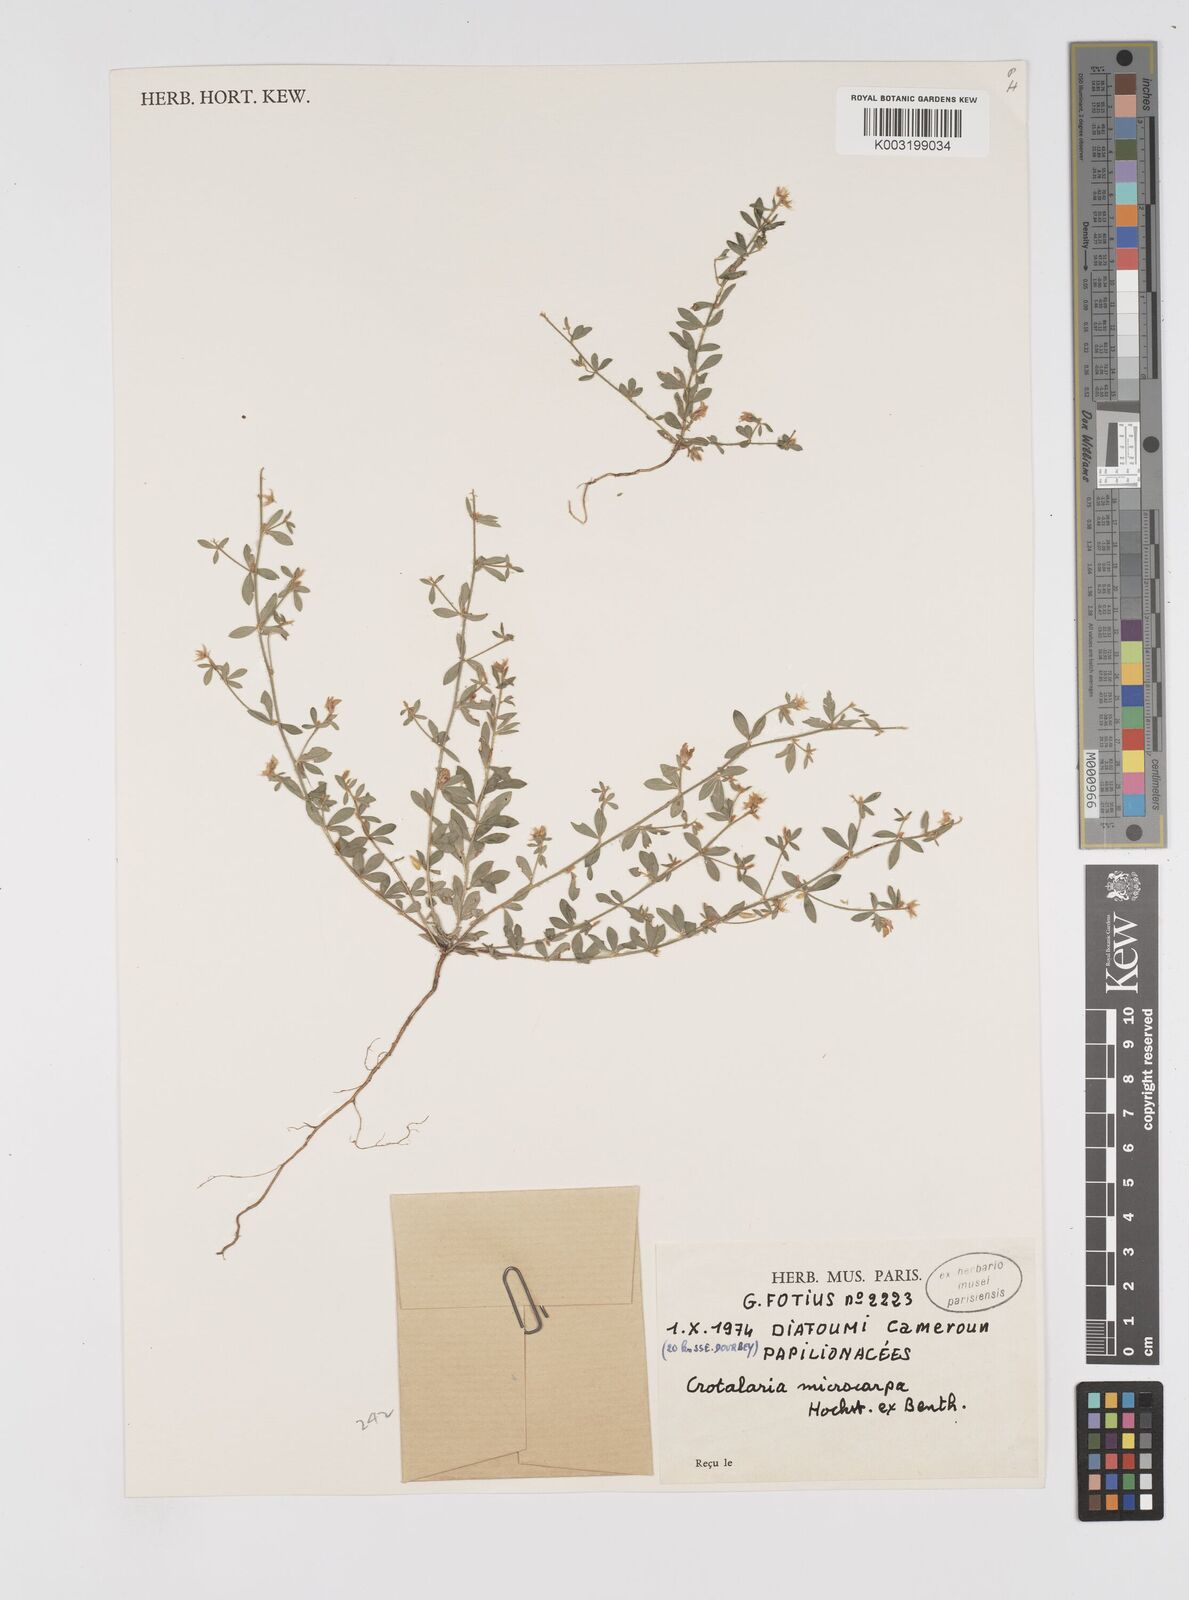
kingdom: Plantae
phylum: Tracheophyta
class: Magnoliopsida
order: Fabales
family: Fabaceae
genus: Crotalaria
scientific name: Crotalaria microcarpa
